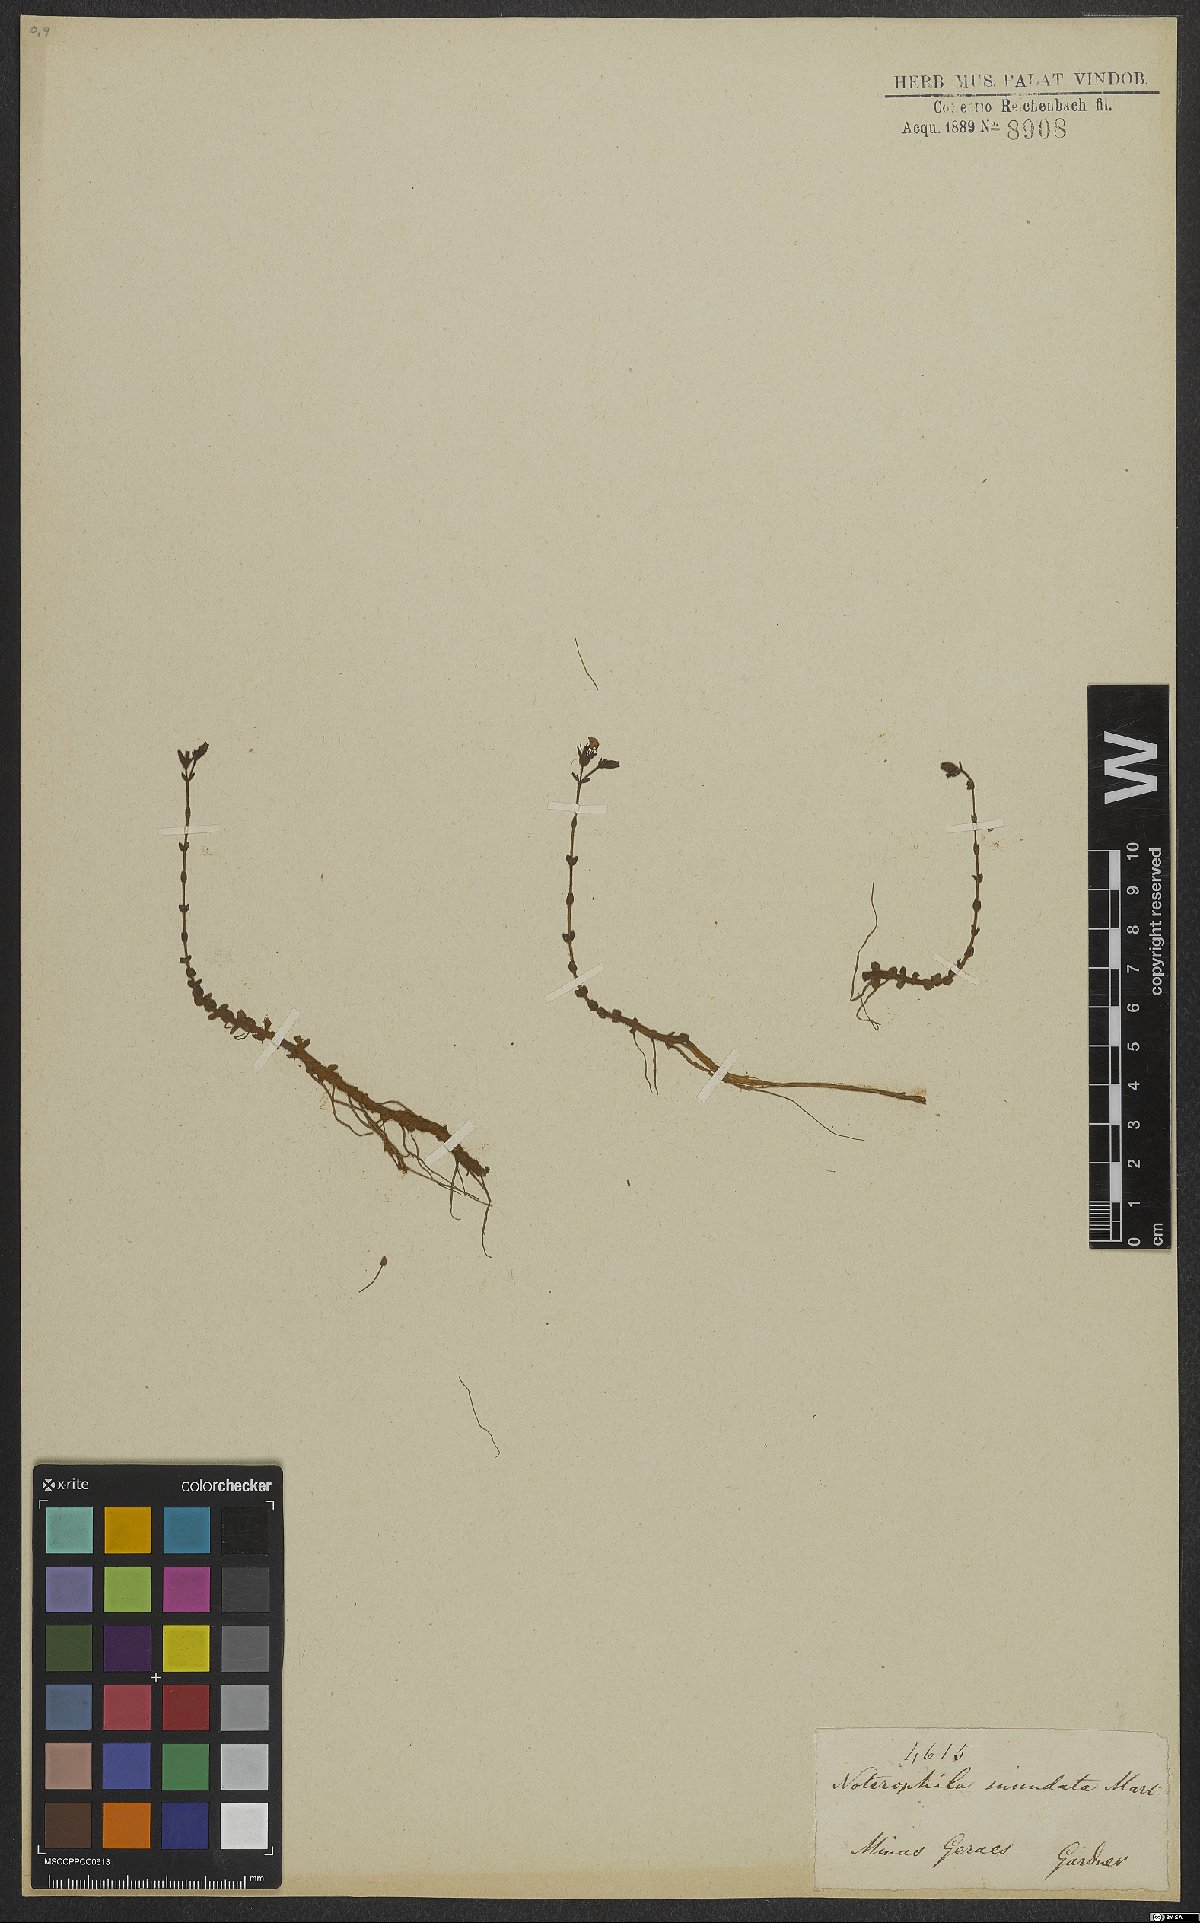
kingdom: Plantae
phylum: Tracheophyta
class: Magnoliopsida
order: Myrtales
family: Melastomataceae
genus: Noterophila
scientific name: Noterophila inundata
